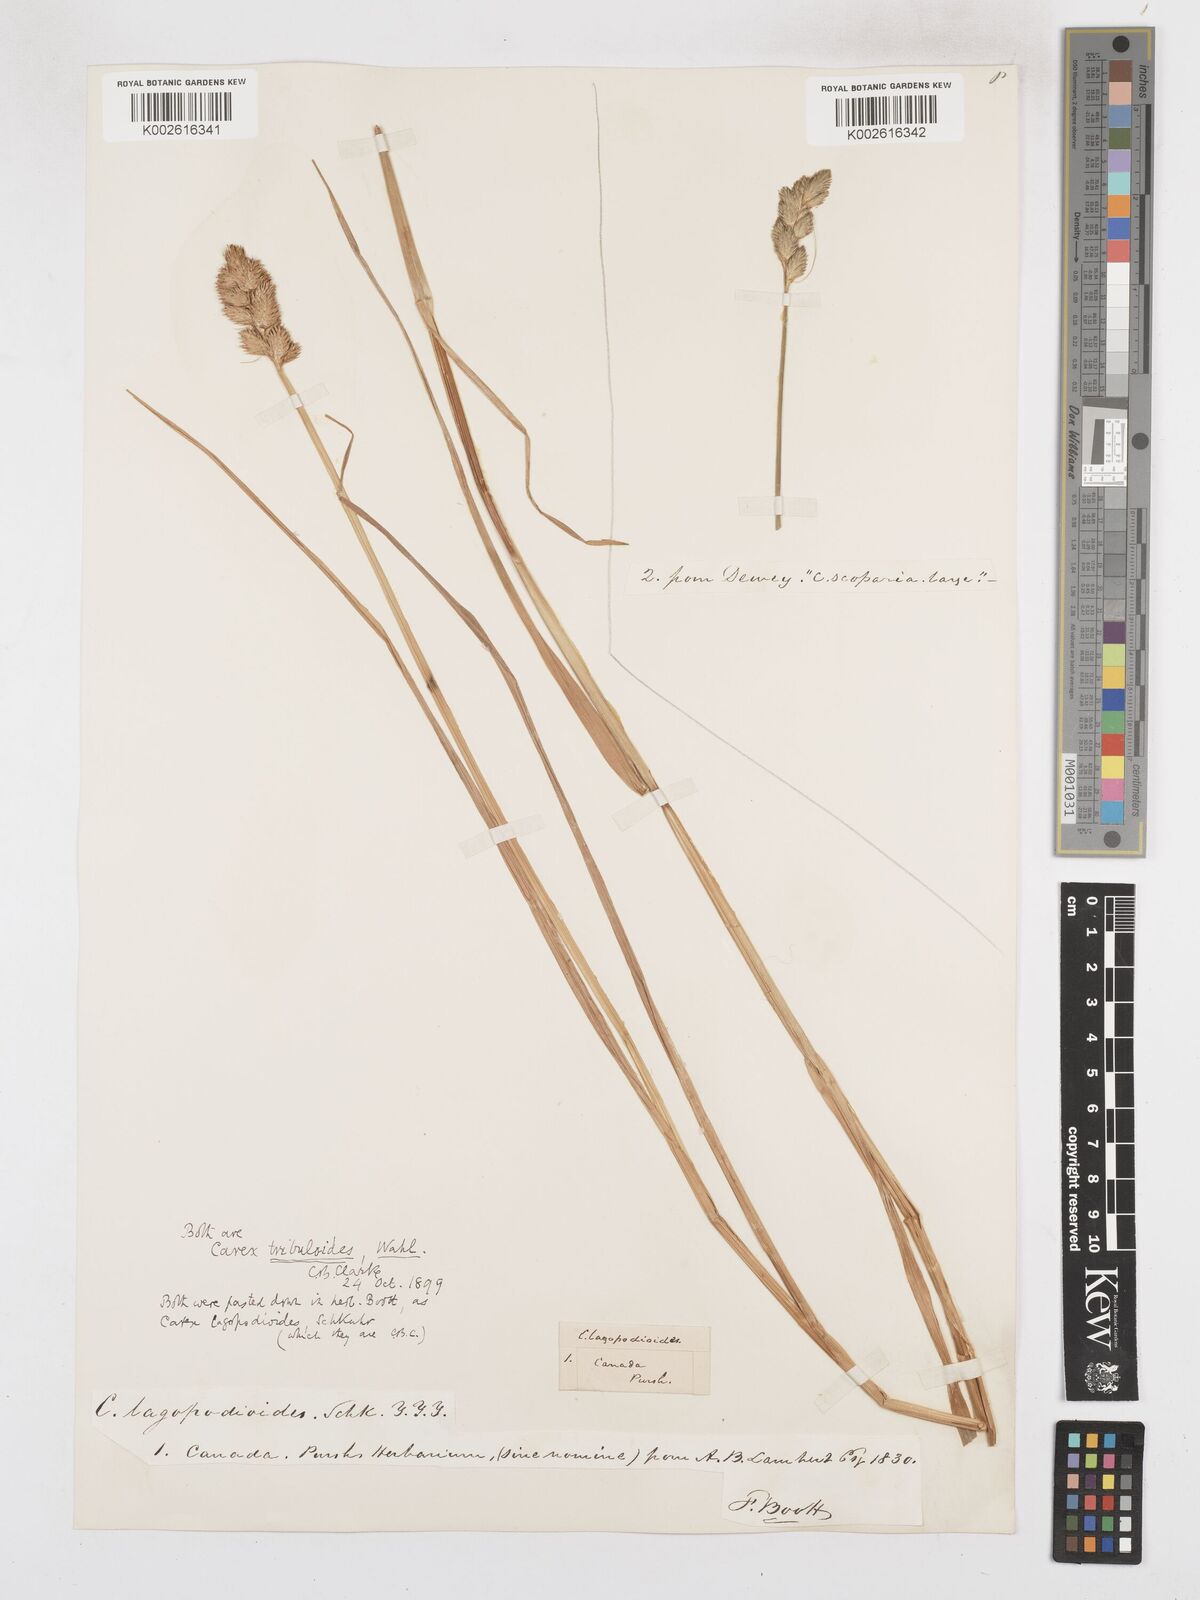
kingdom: Plantae
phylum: Tracheophyta
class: Liliopsida
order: Poales
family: Cyperaceae
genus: Carex
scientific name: Carex tribuloides
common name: Blunt broom sedge
